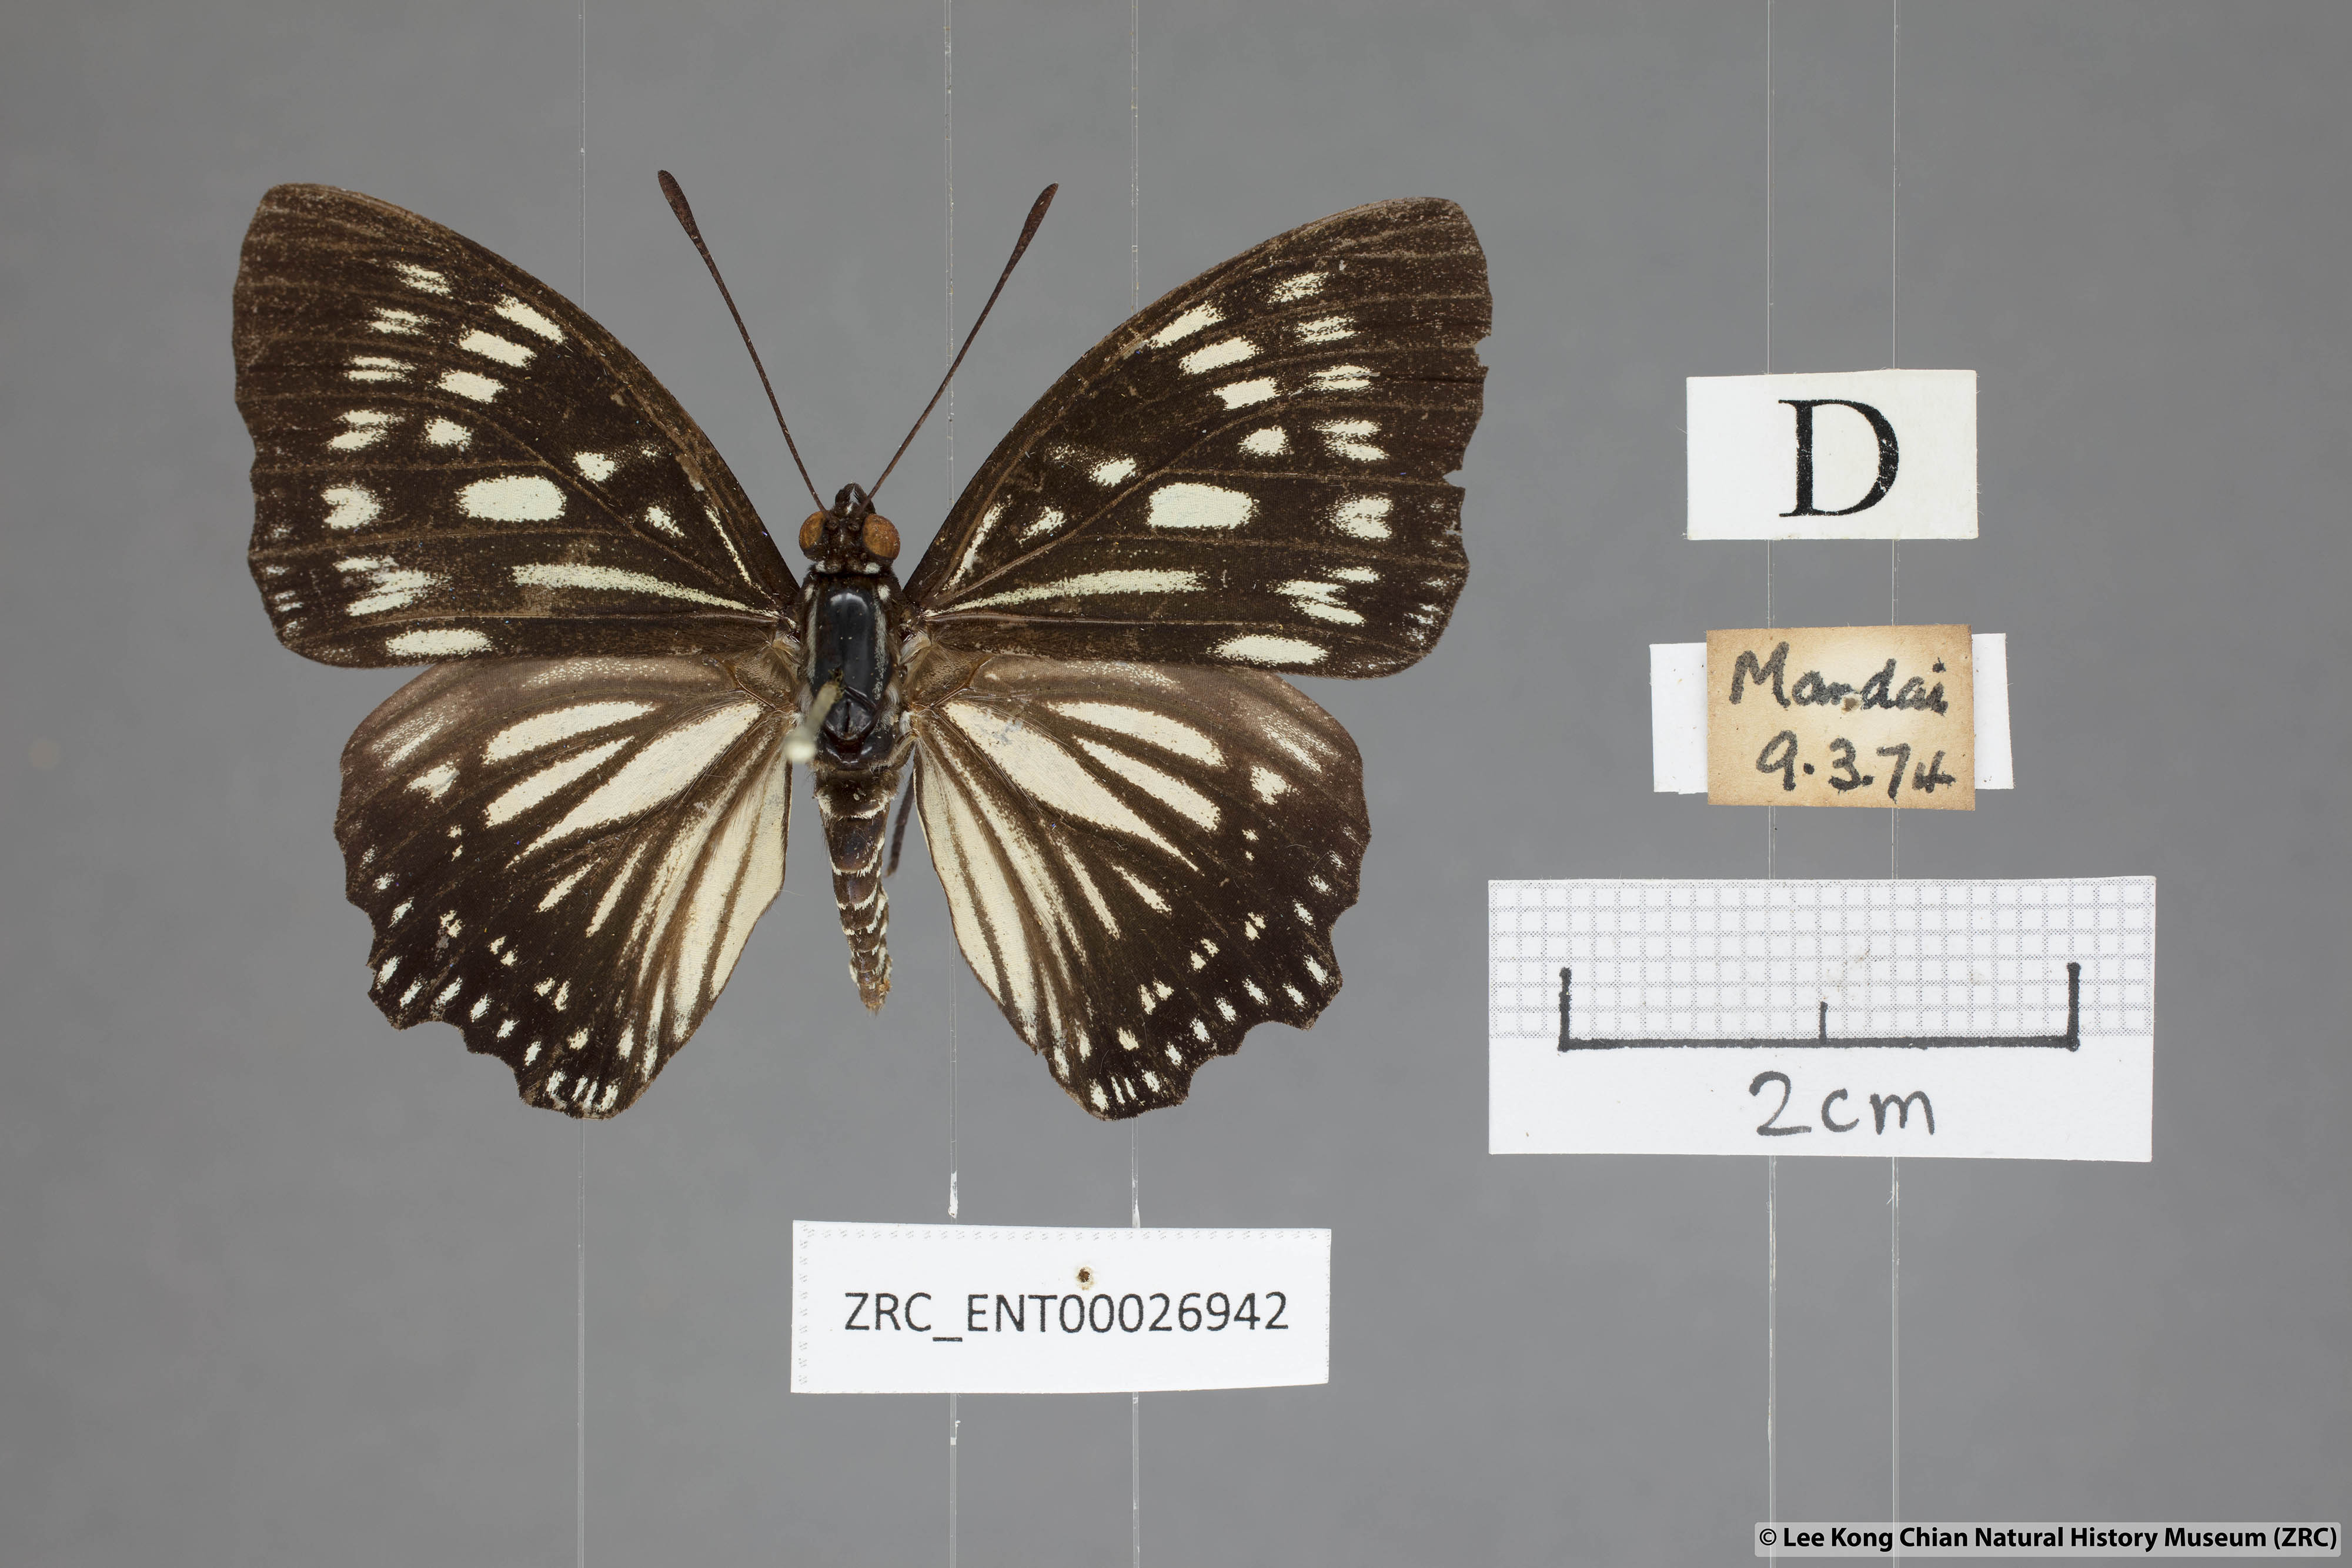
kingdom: Animalia
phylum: Arthropoda
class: Insecta
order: Lepidoptera
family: Nymphalidae
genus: Euripus
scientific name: Euripus nyctelius
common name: Courtesan
